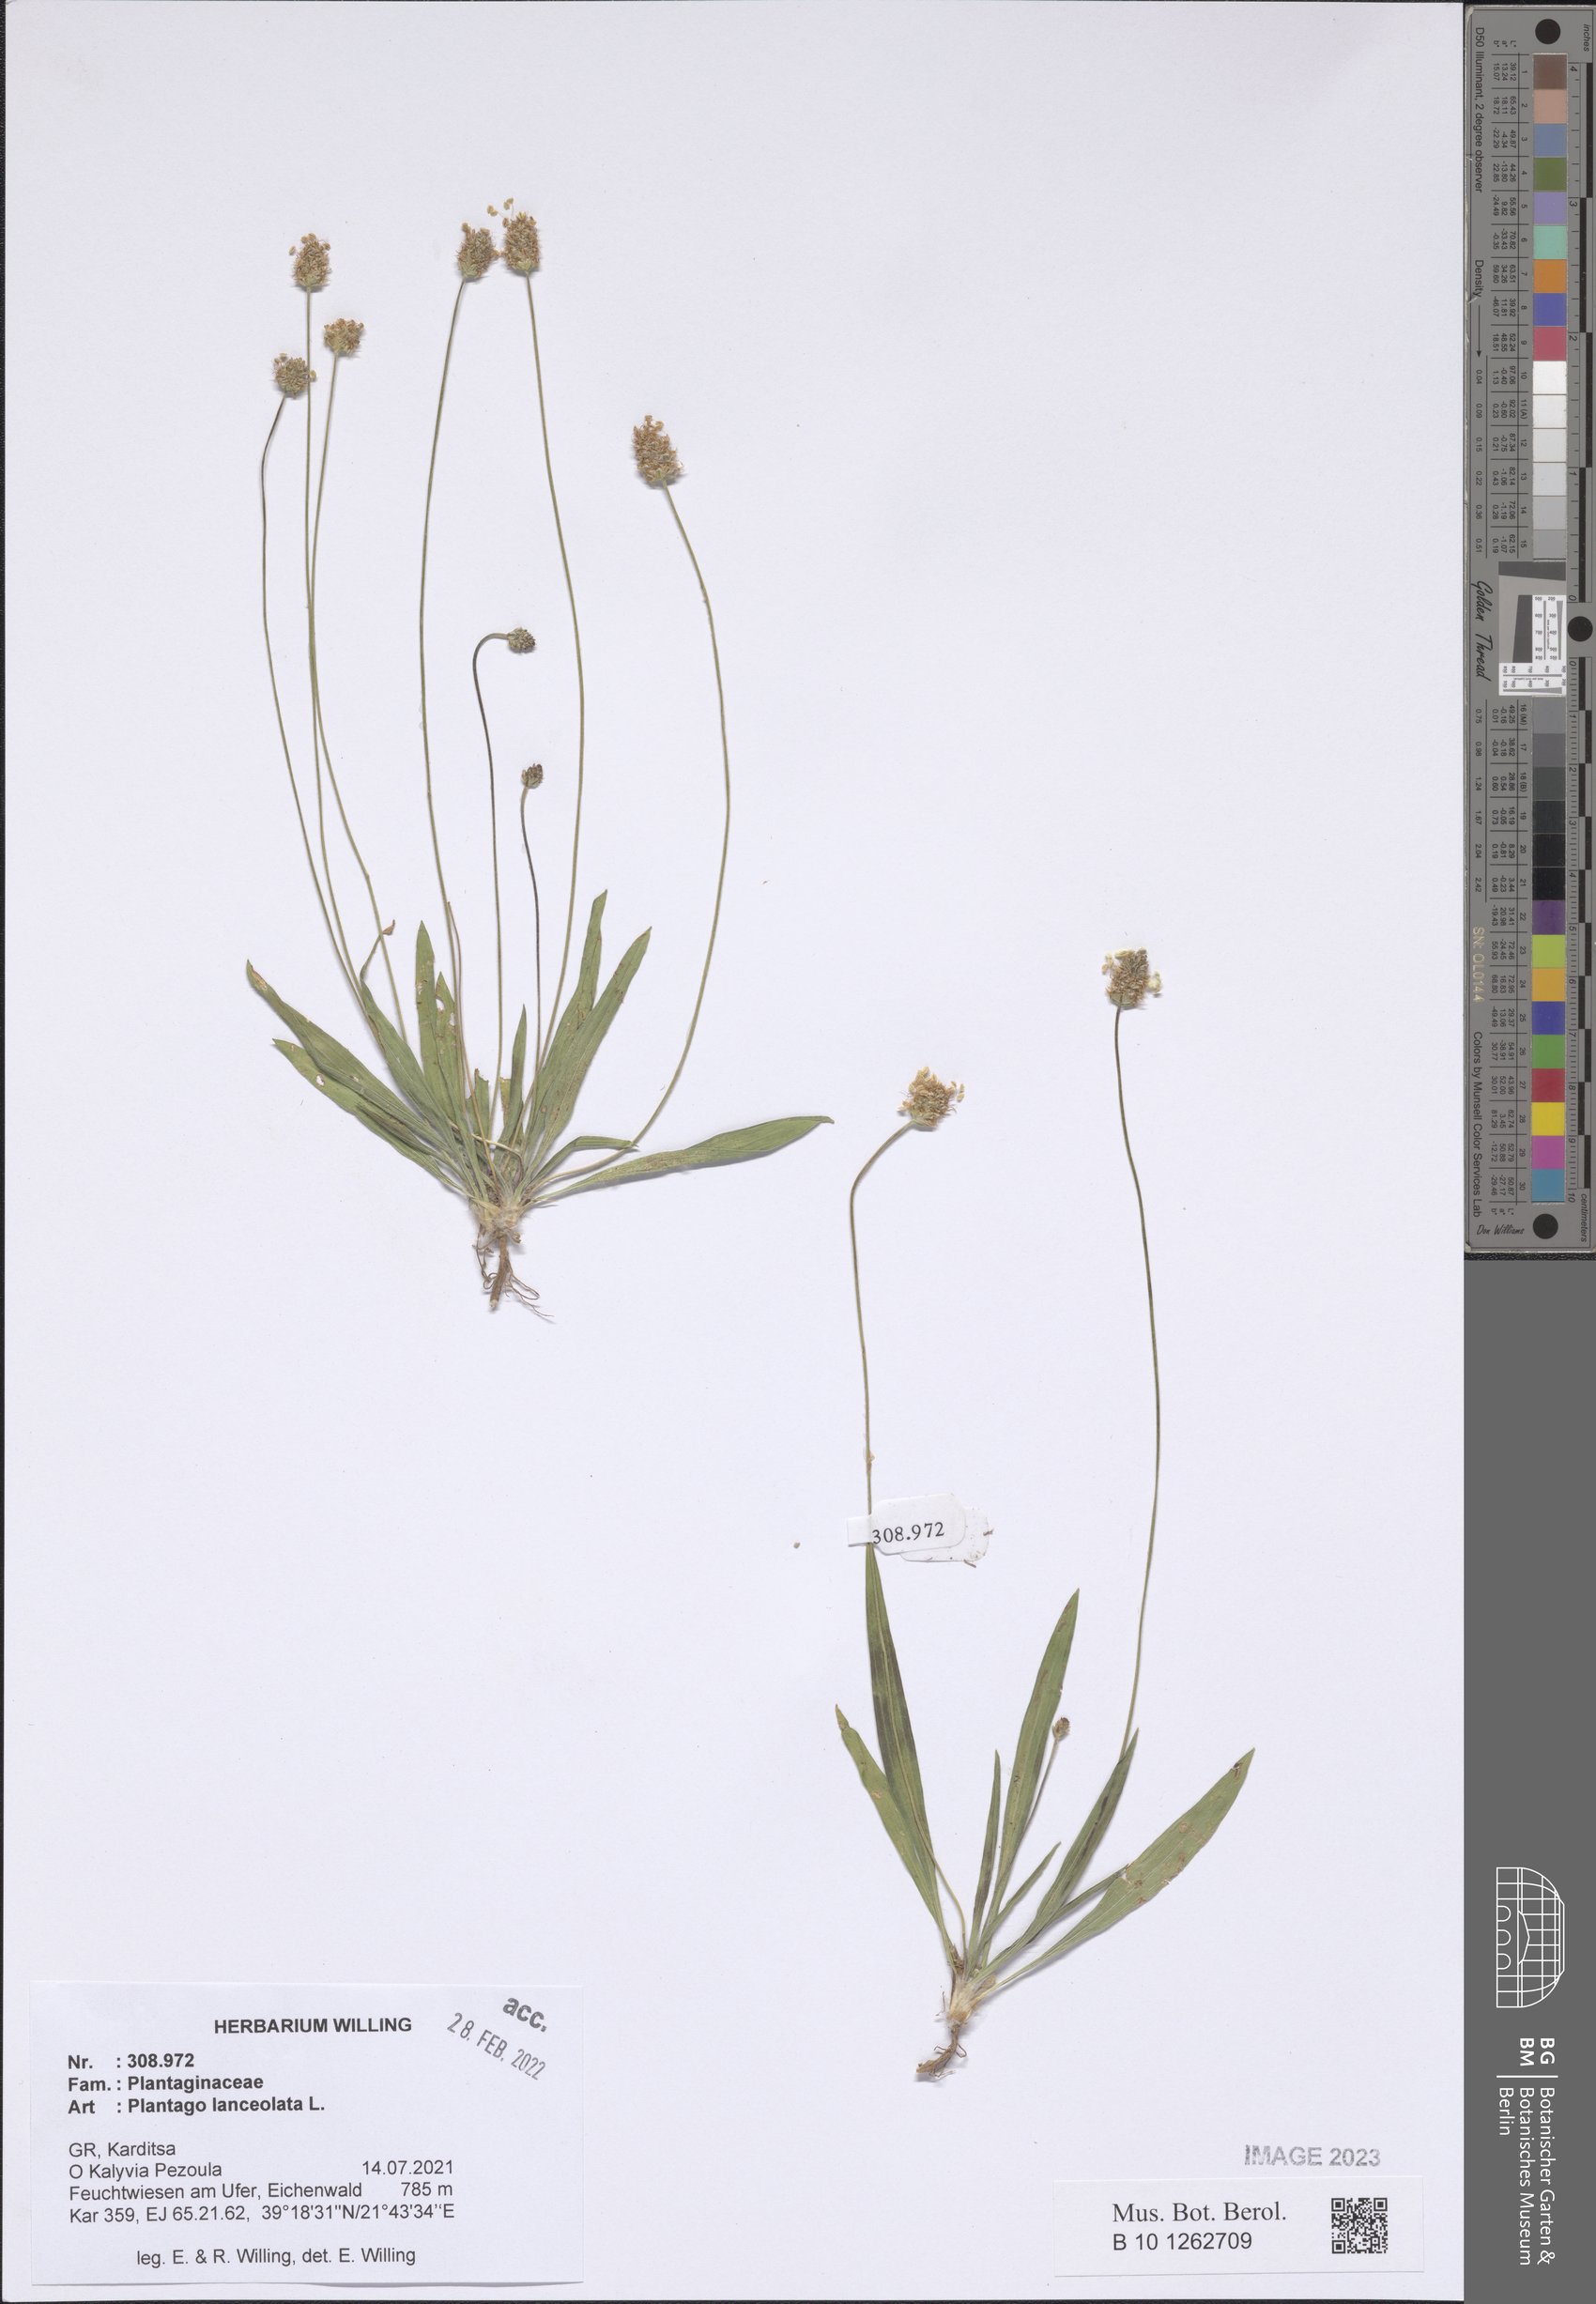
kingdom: Plantae
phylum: Tracheophyta
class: Magnoliopsida
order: Lamiales
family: Plantaginaceae
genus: Plantago
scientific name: Plantago lanceolata
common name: Ribwort plantain
